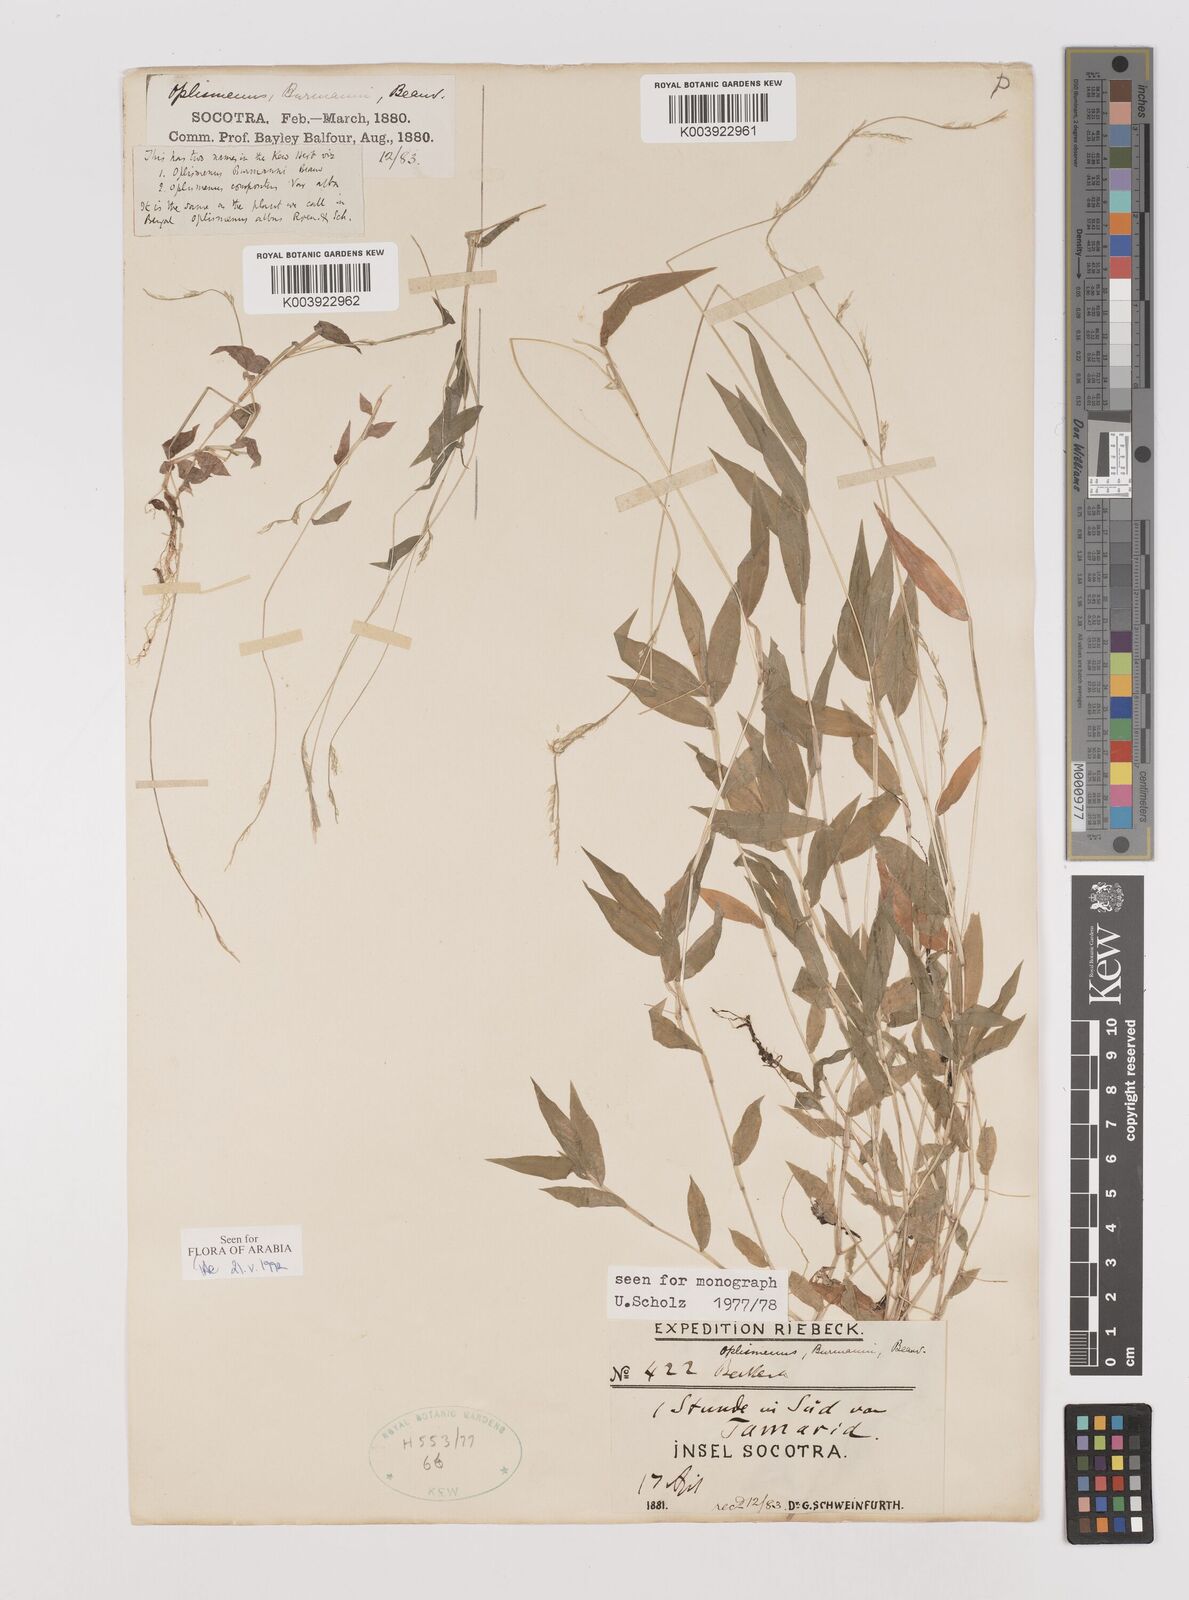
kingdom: Plantae
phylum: Tracheophyta
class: Liliopsida
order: Poales
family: Poaceae
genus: Oplismenus
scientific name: Oplismenus burmanni
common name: Burmann's basketgrass
